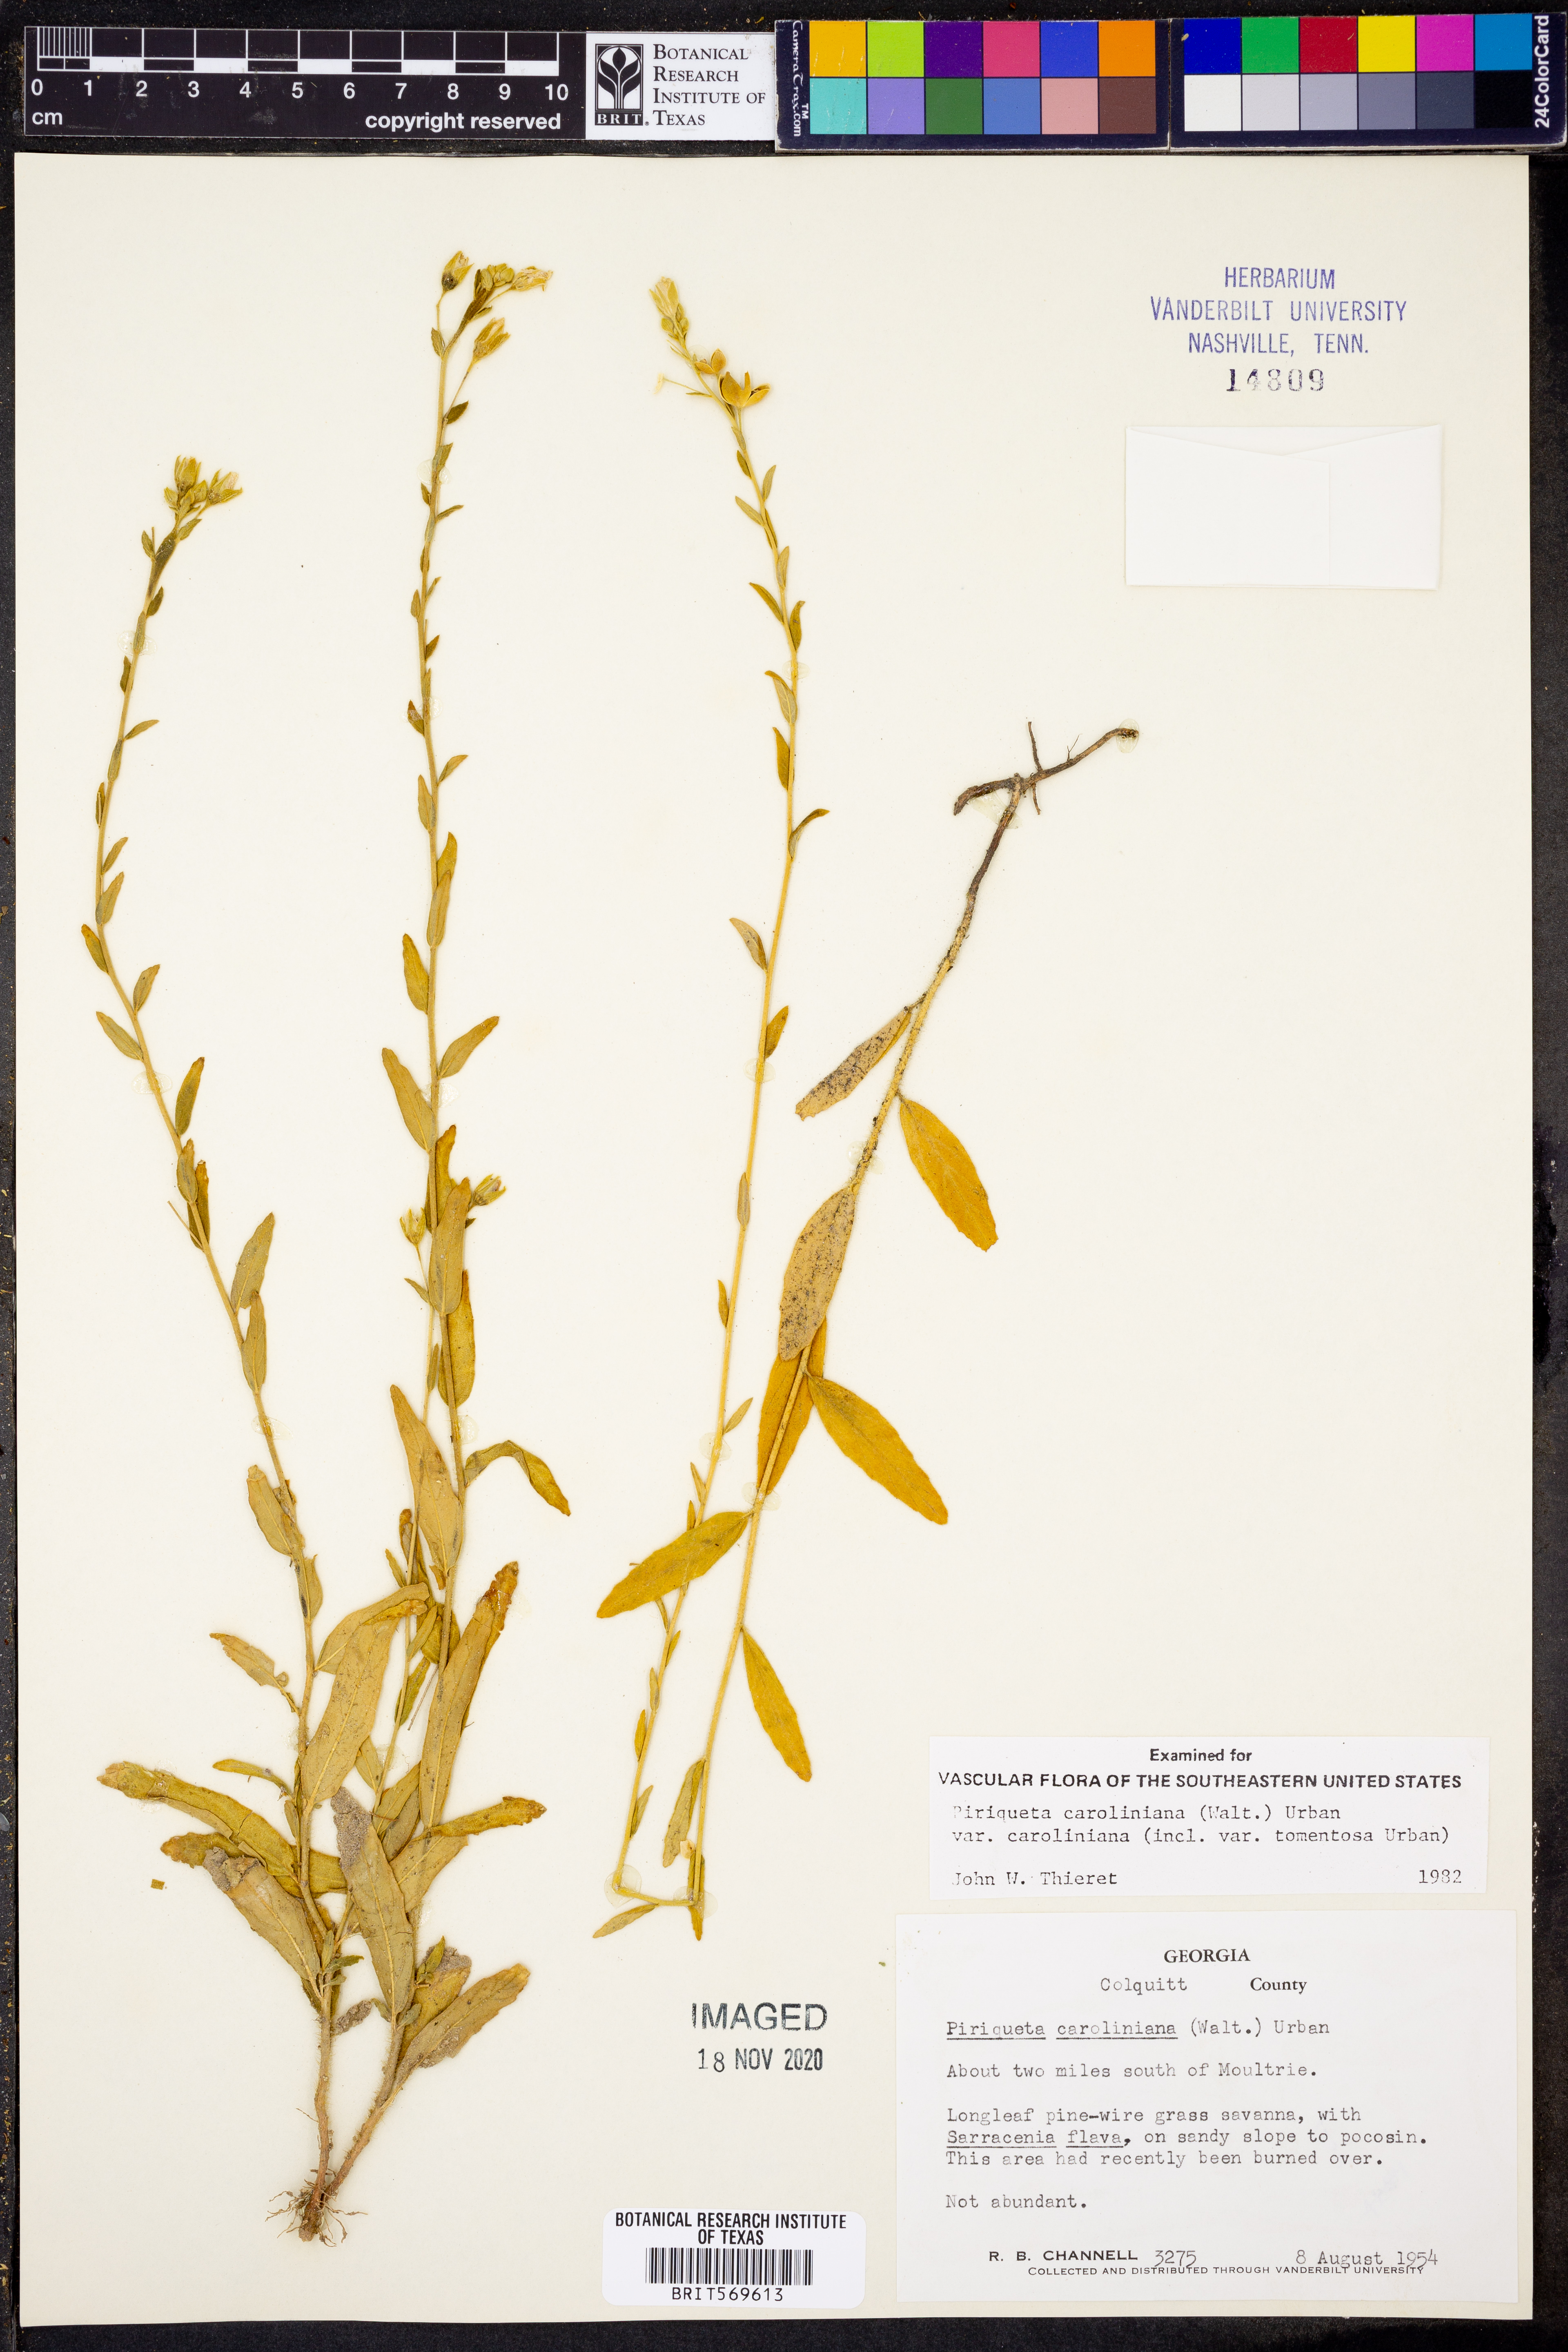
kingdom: Plantae
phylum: Tracheophyta
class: Magnoliopsida
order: Malpighiales
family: Turneraceae
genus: Piriqueta
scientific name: Piriqueta cistoides
